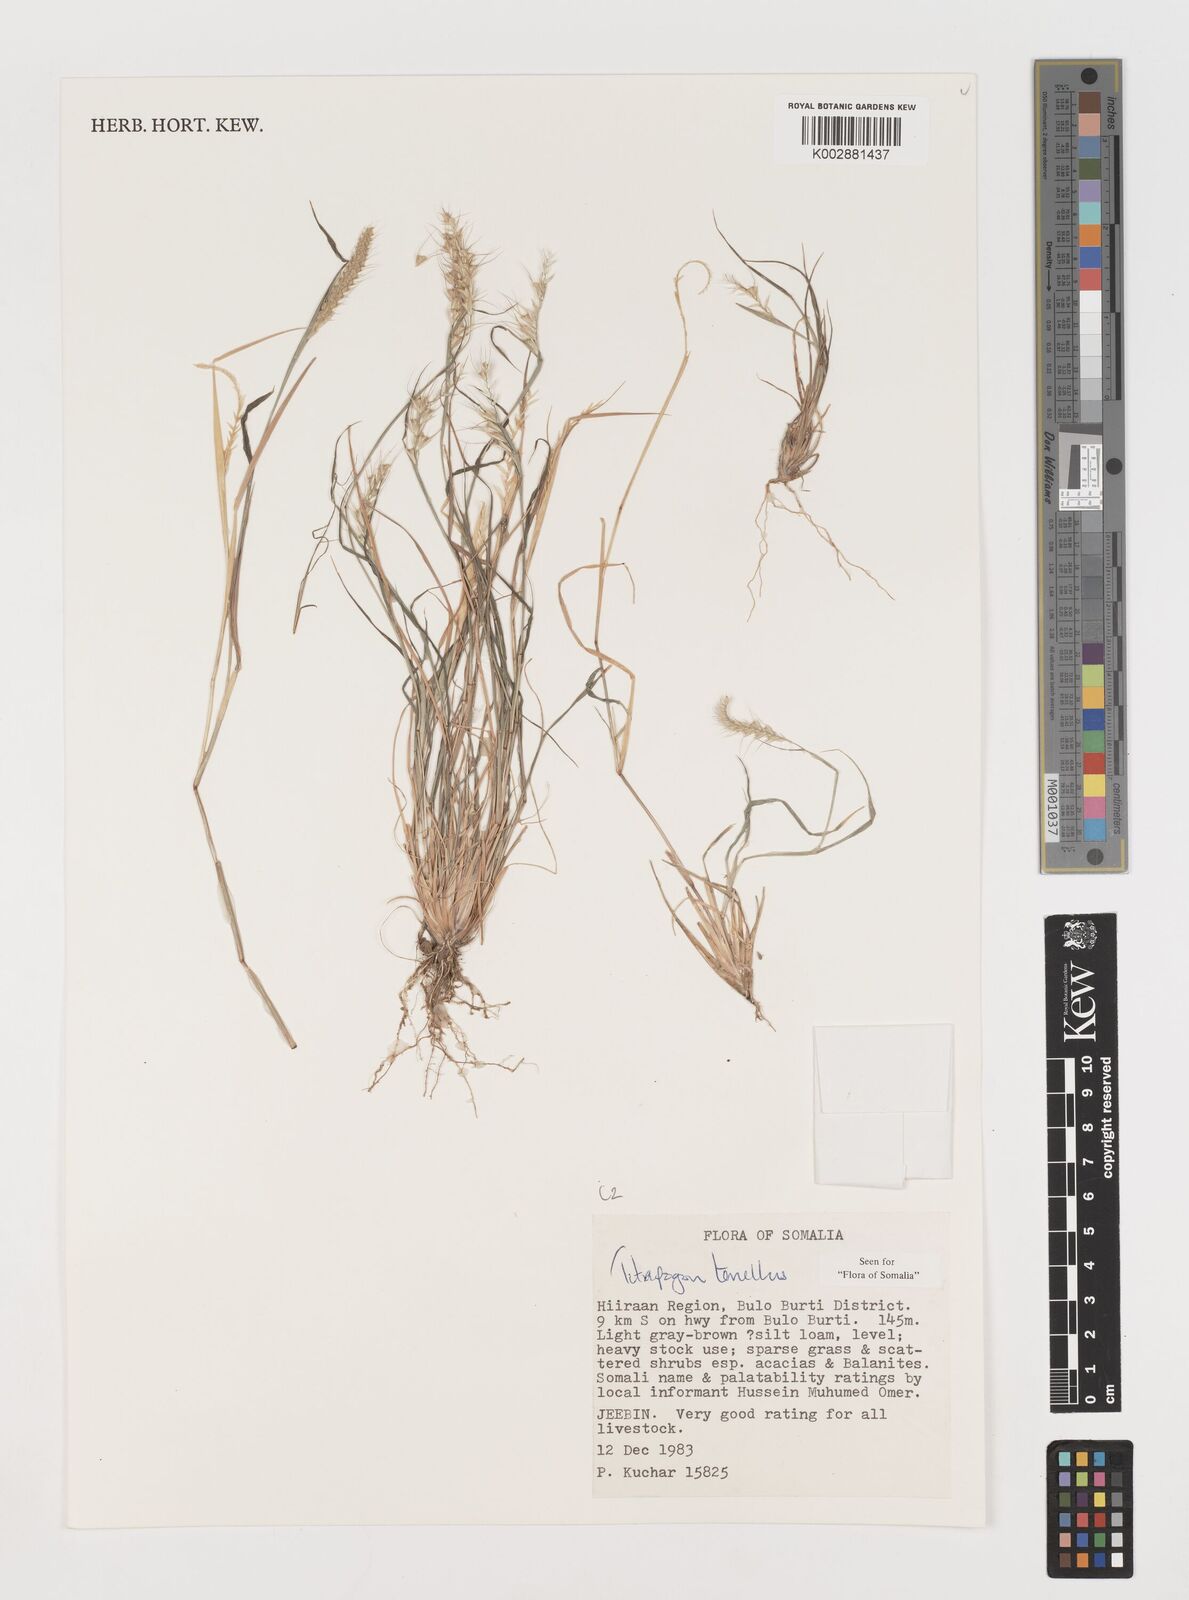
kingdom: Plantae
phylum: Tracheophyta
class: Liliopsida
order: Poales
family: Poaceae
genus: Tetrapogon
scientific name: Tetrapogon tenellus
